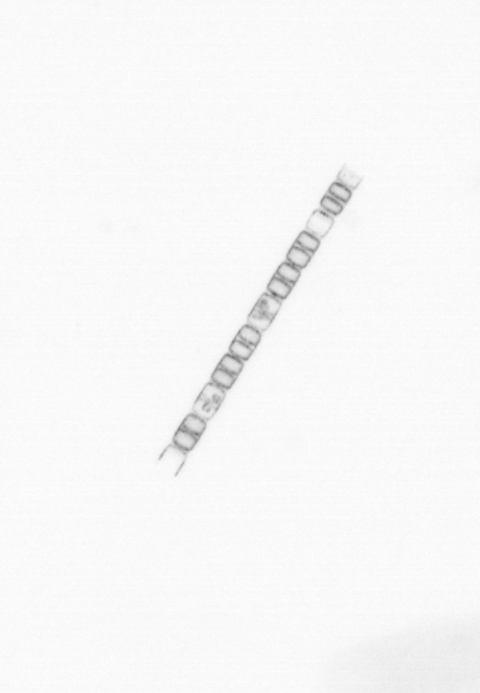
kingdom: Chromista
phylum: Ochrophyta
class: Bacillariophyceae
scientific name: Bacillariophyceae
